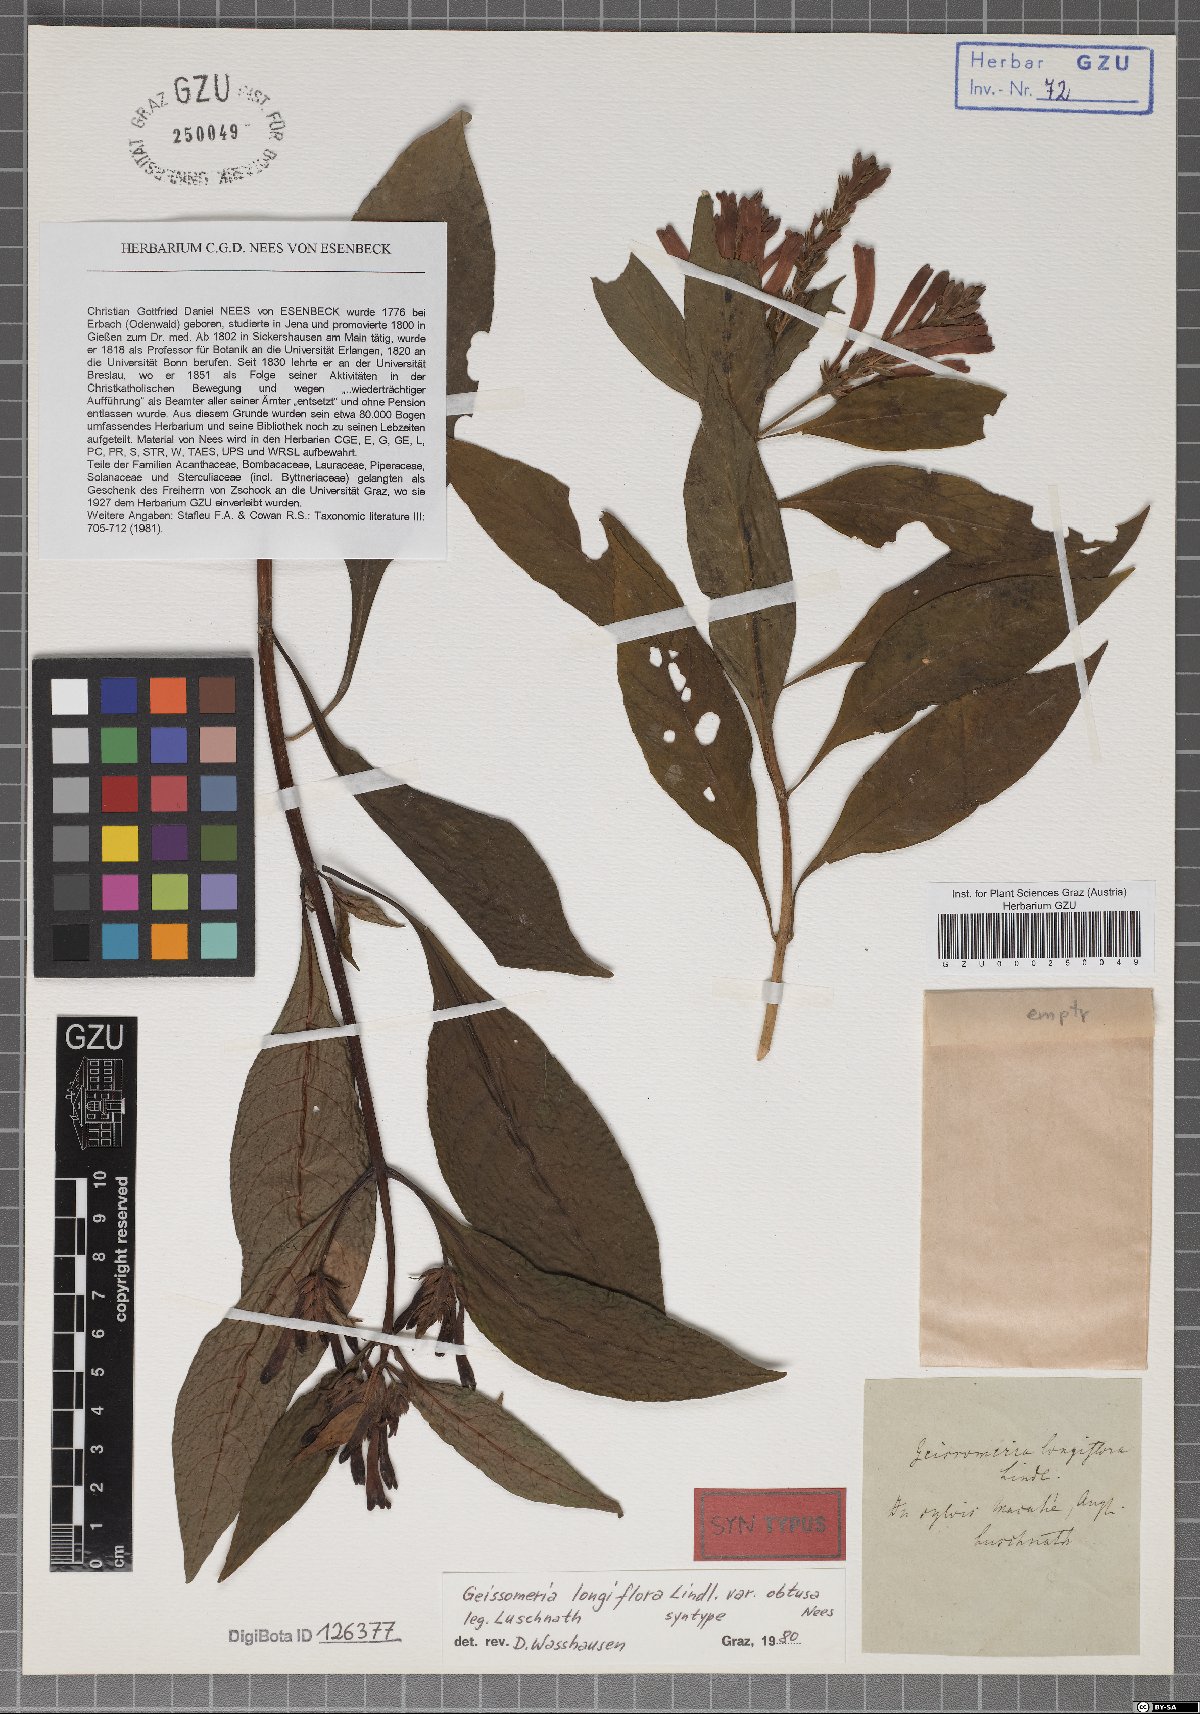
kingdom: Plantae
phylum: Tracheophyta
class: Magnoliopsida
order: Lamiales
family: Acanthaceae
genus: Aphelandra
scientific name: Aphelandra longiflora
